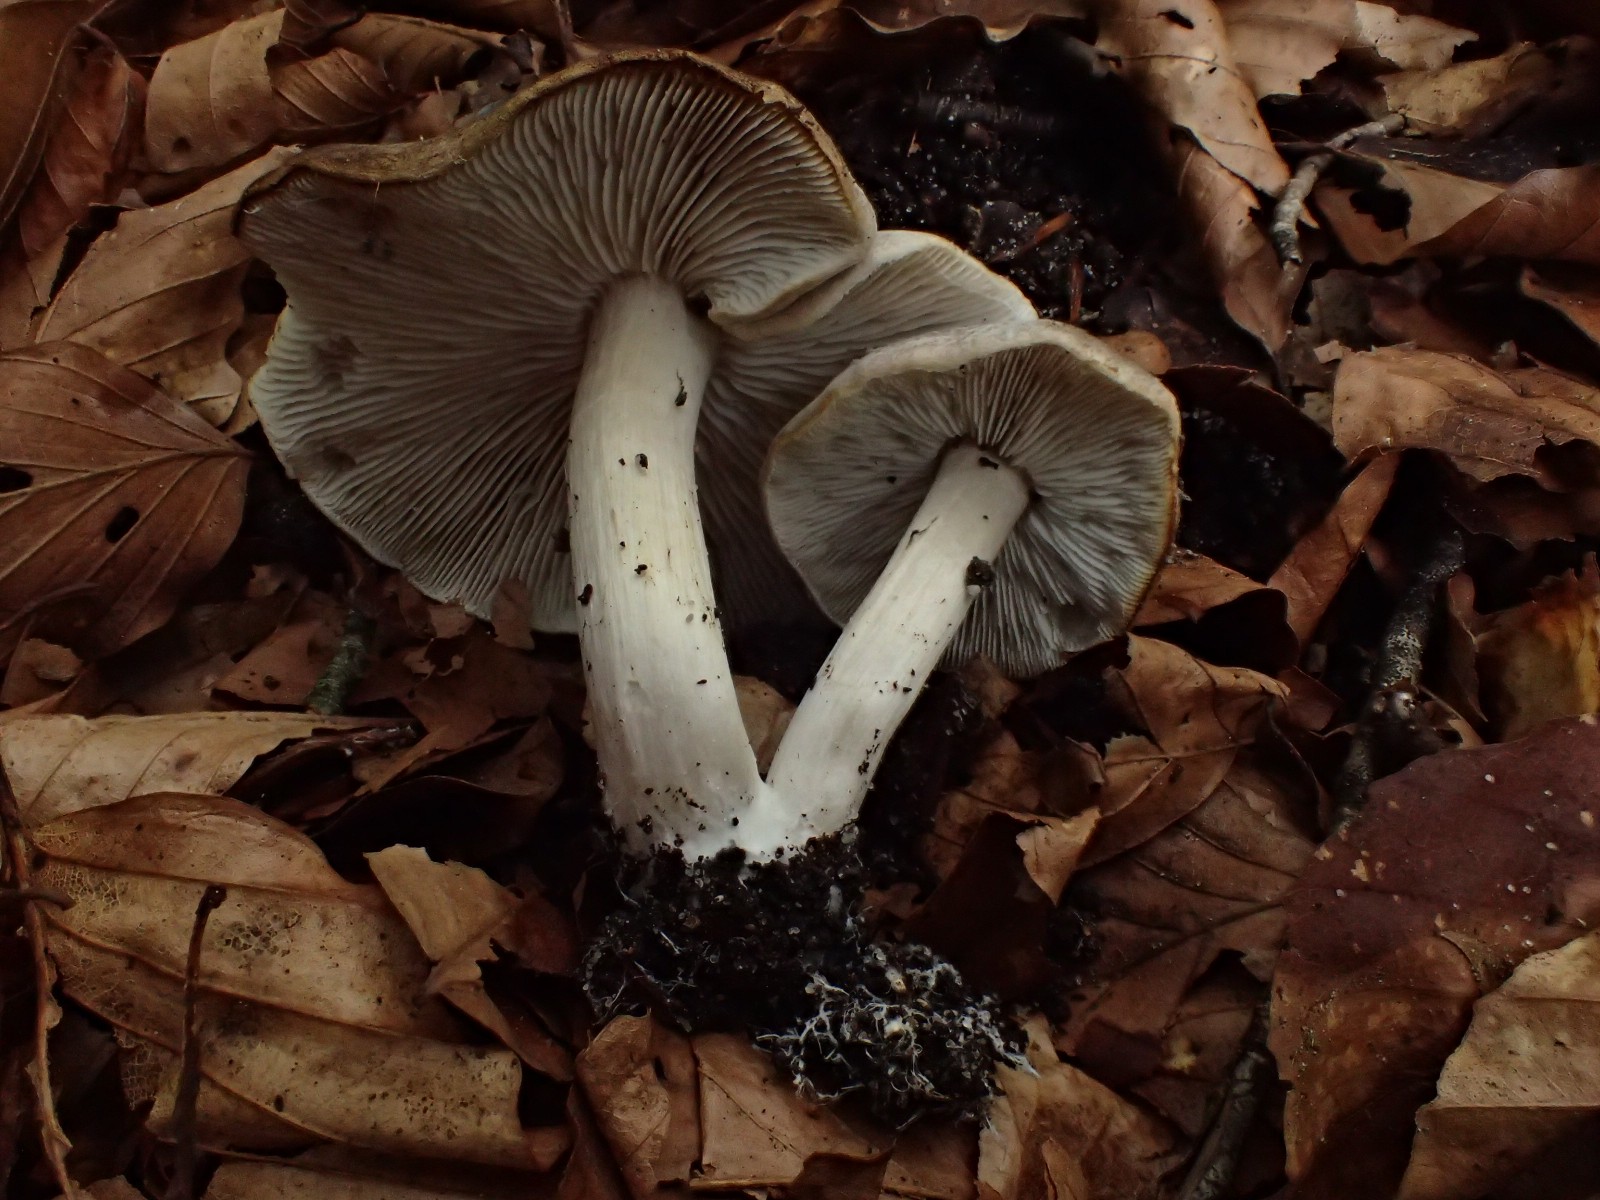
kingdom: Fungi
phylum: Basidiomycota
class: Agaricomycetes
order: Agaricales
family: Tricholomataceae
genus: Tricholoma
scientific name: Tricholoma scalpturatum
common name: gulplettet ridderhat
